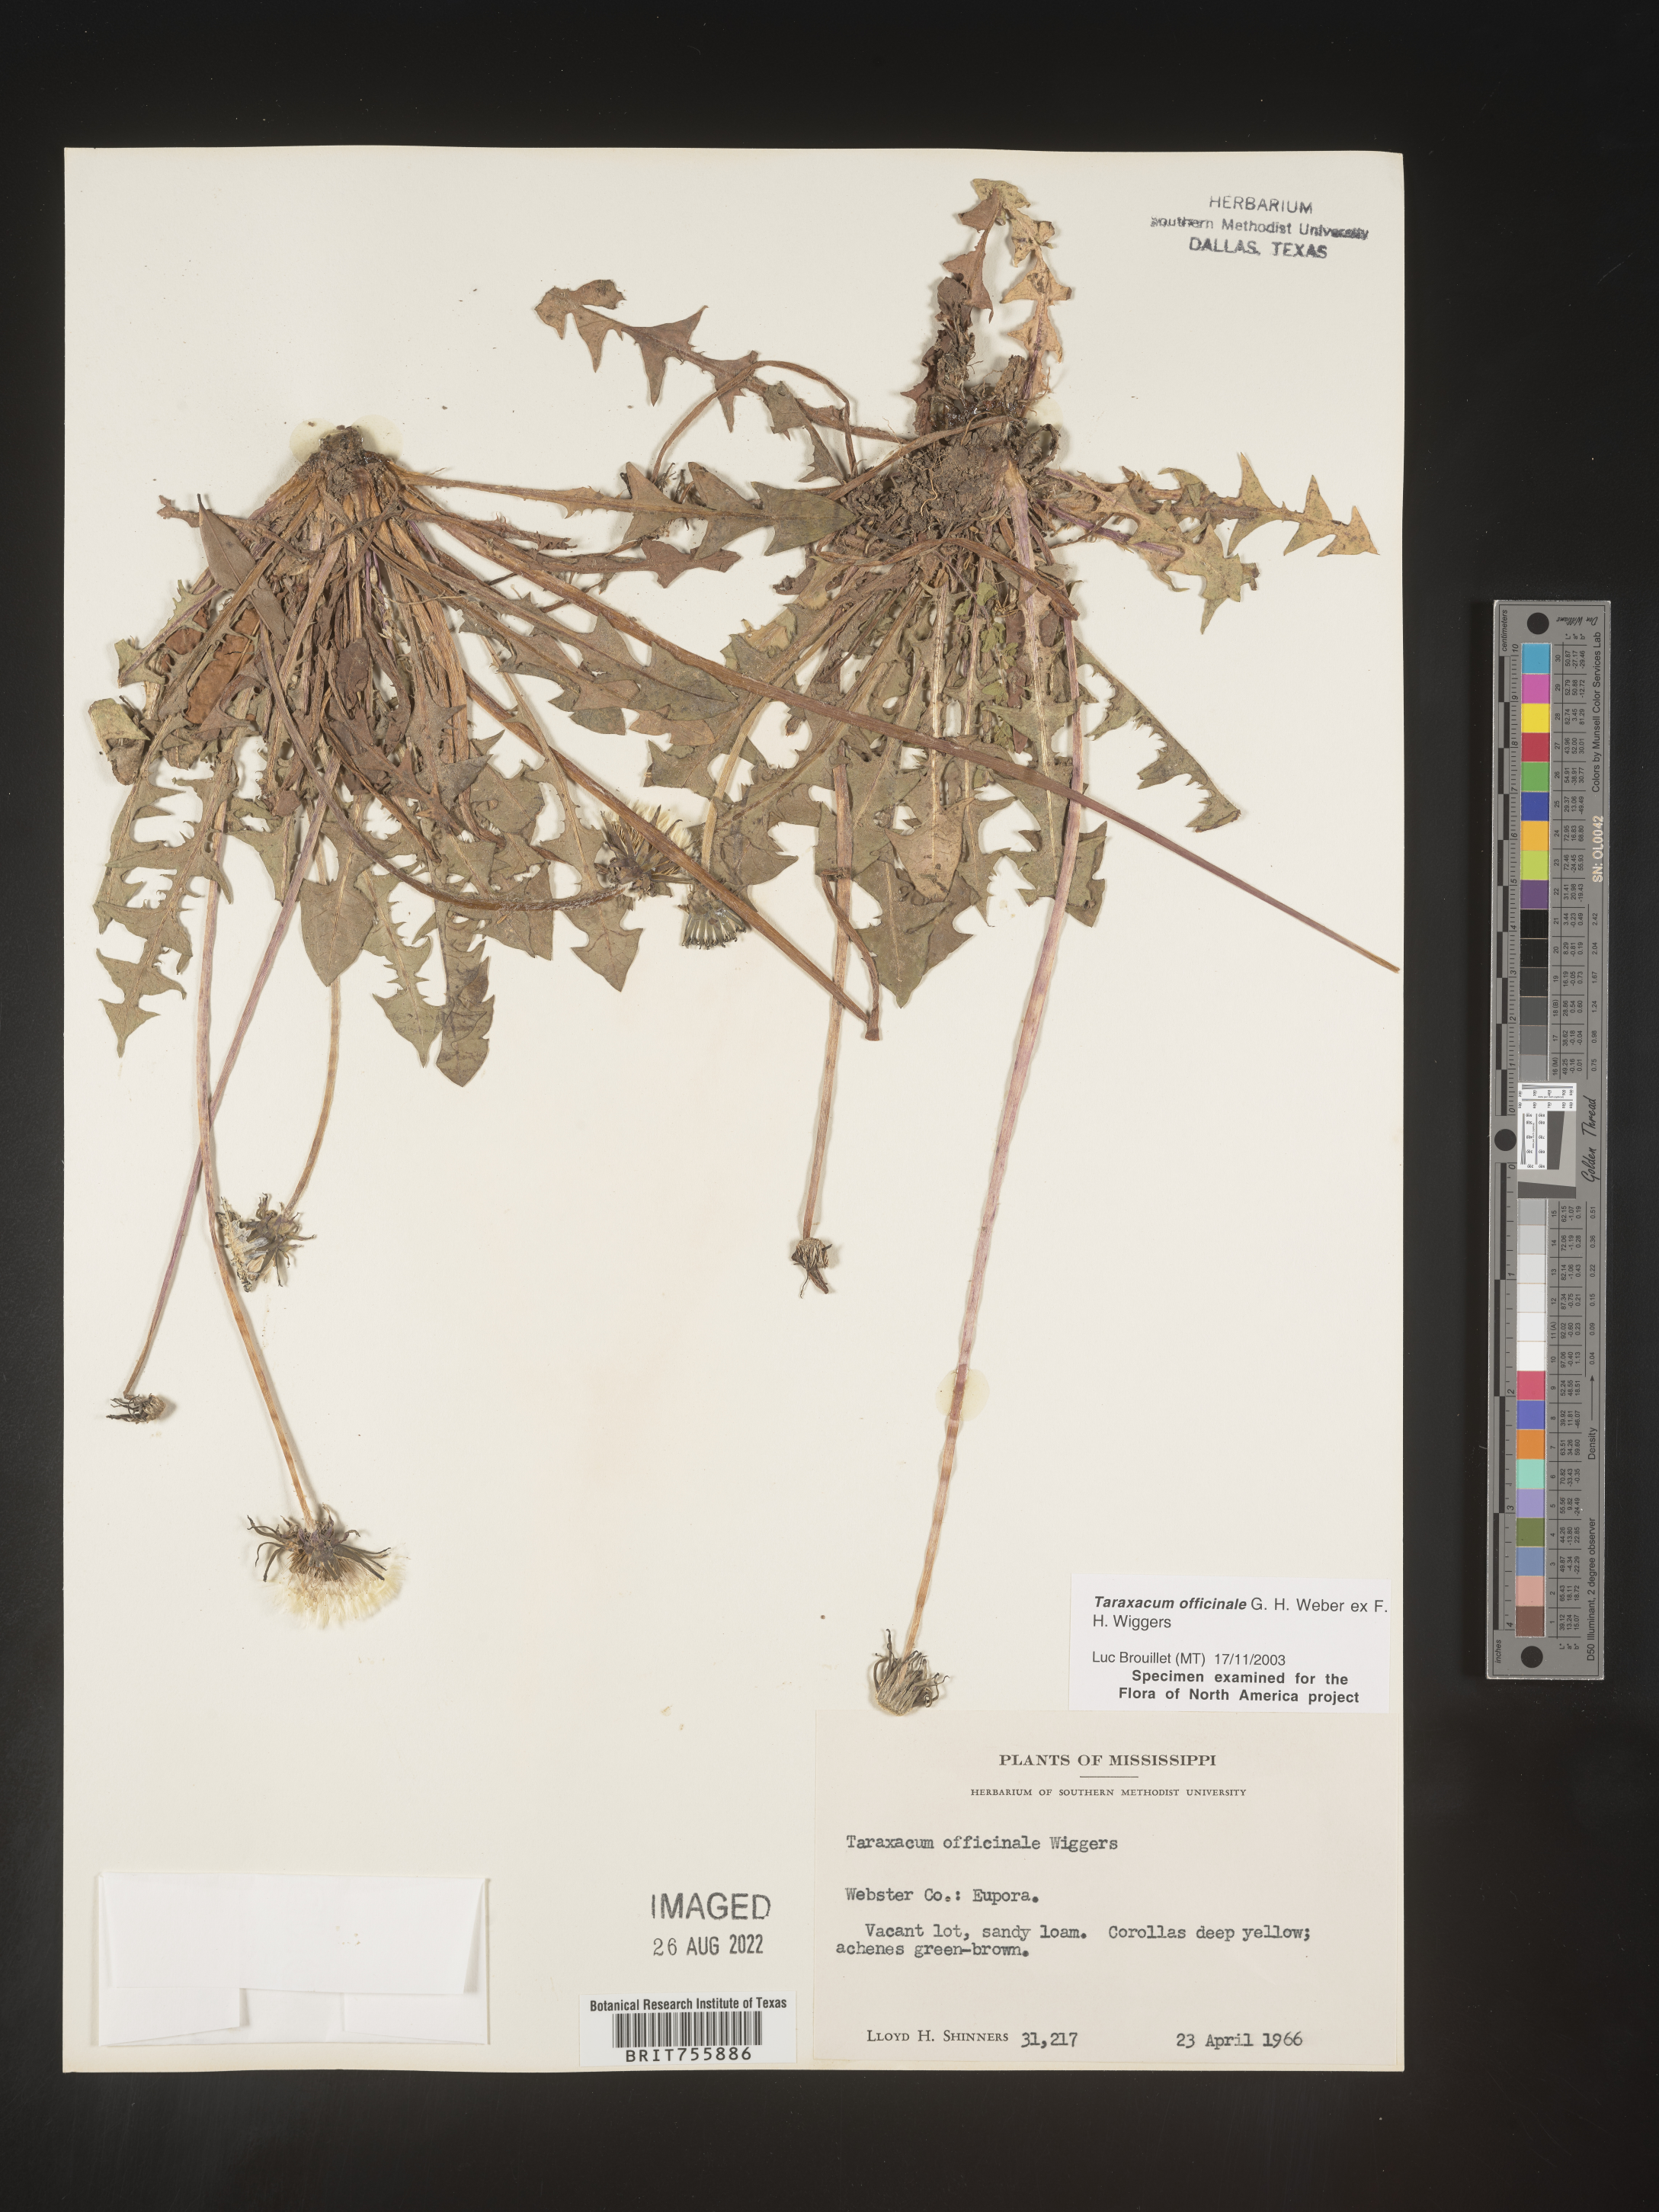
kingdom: Plantae
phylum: Tracheophyta
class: Magnoliopsida
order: Asterales
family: Asteraceae
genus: Taraxacum
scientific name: Taraxacum officinale
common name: Common dandelion
